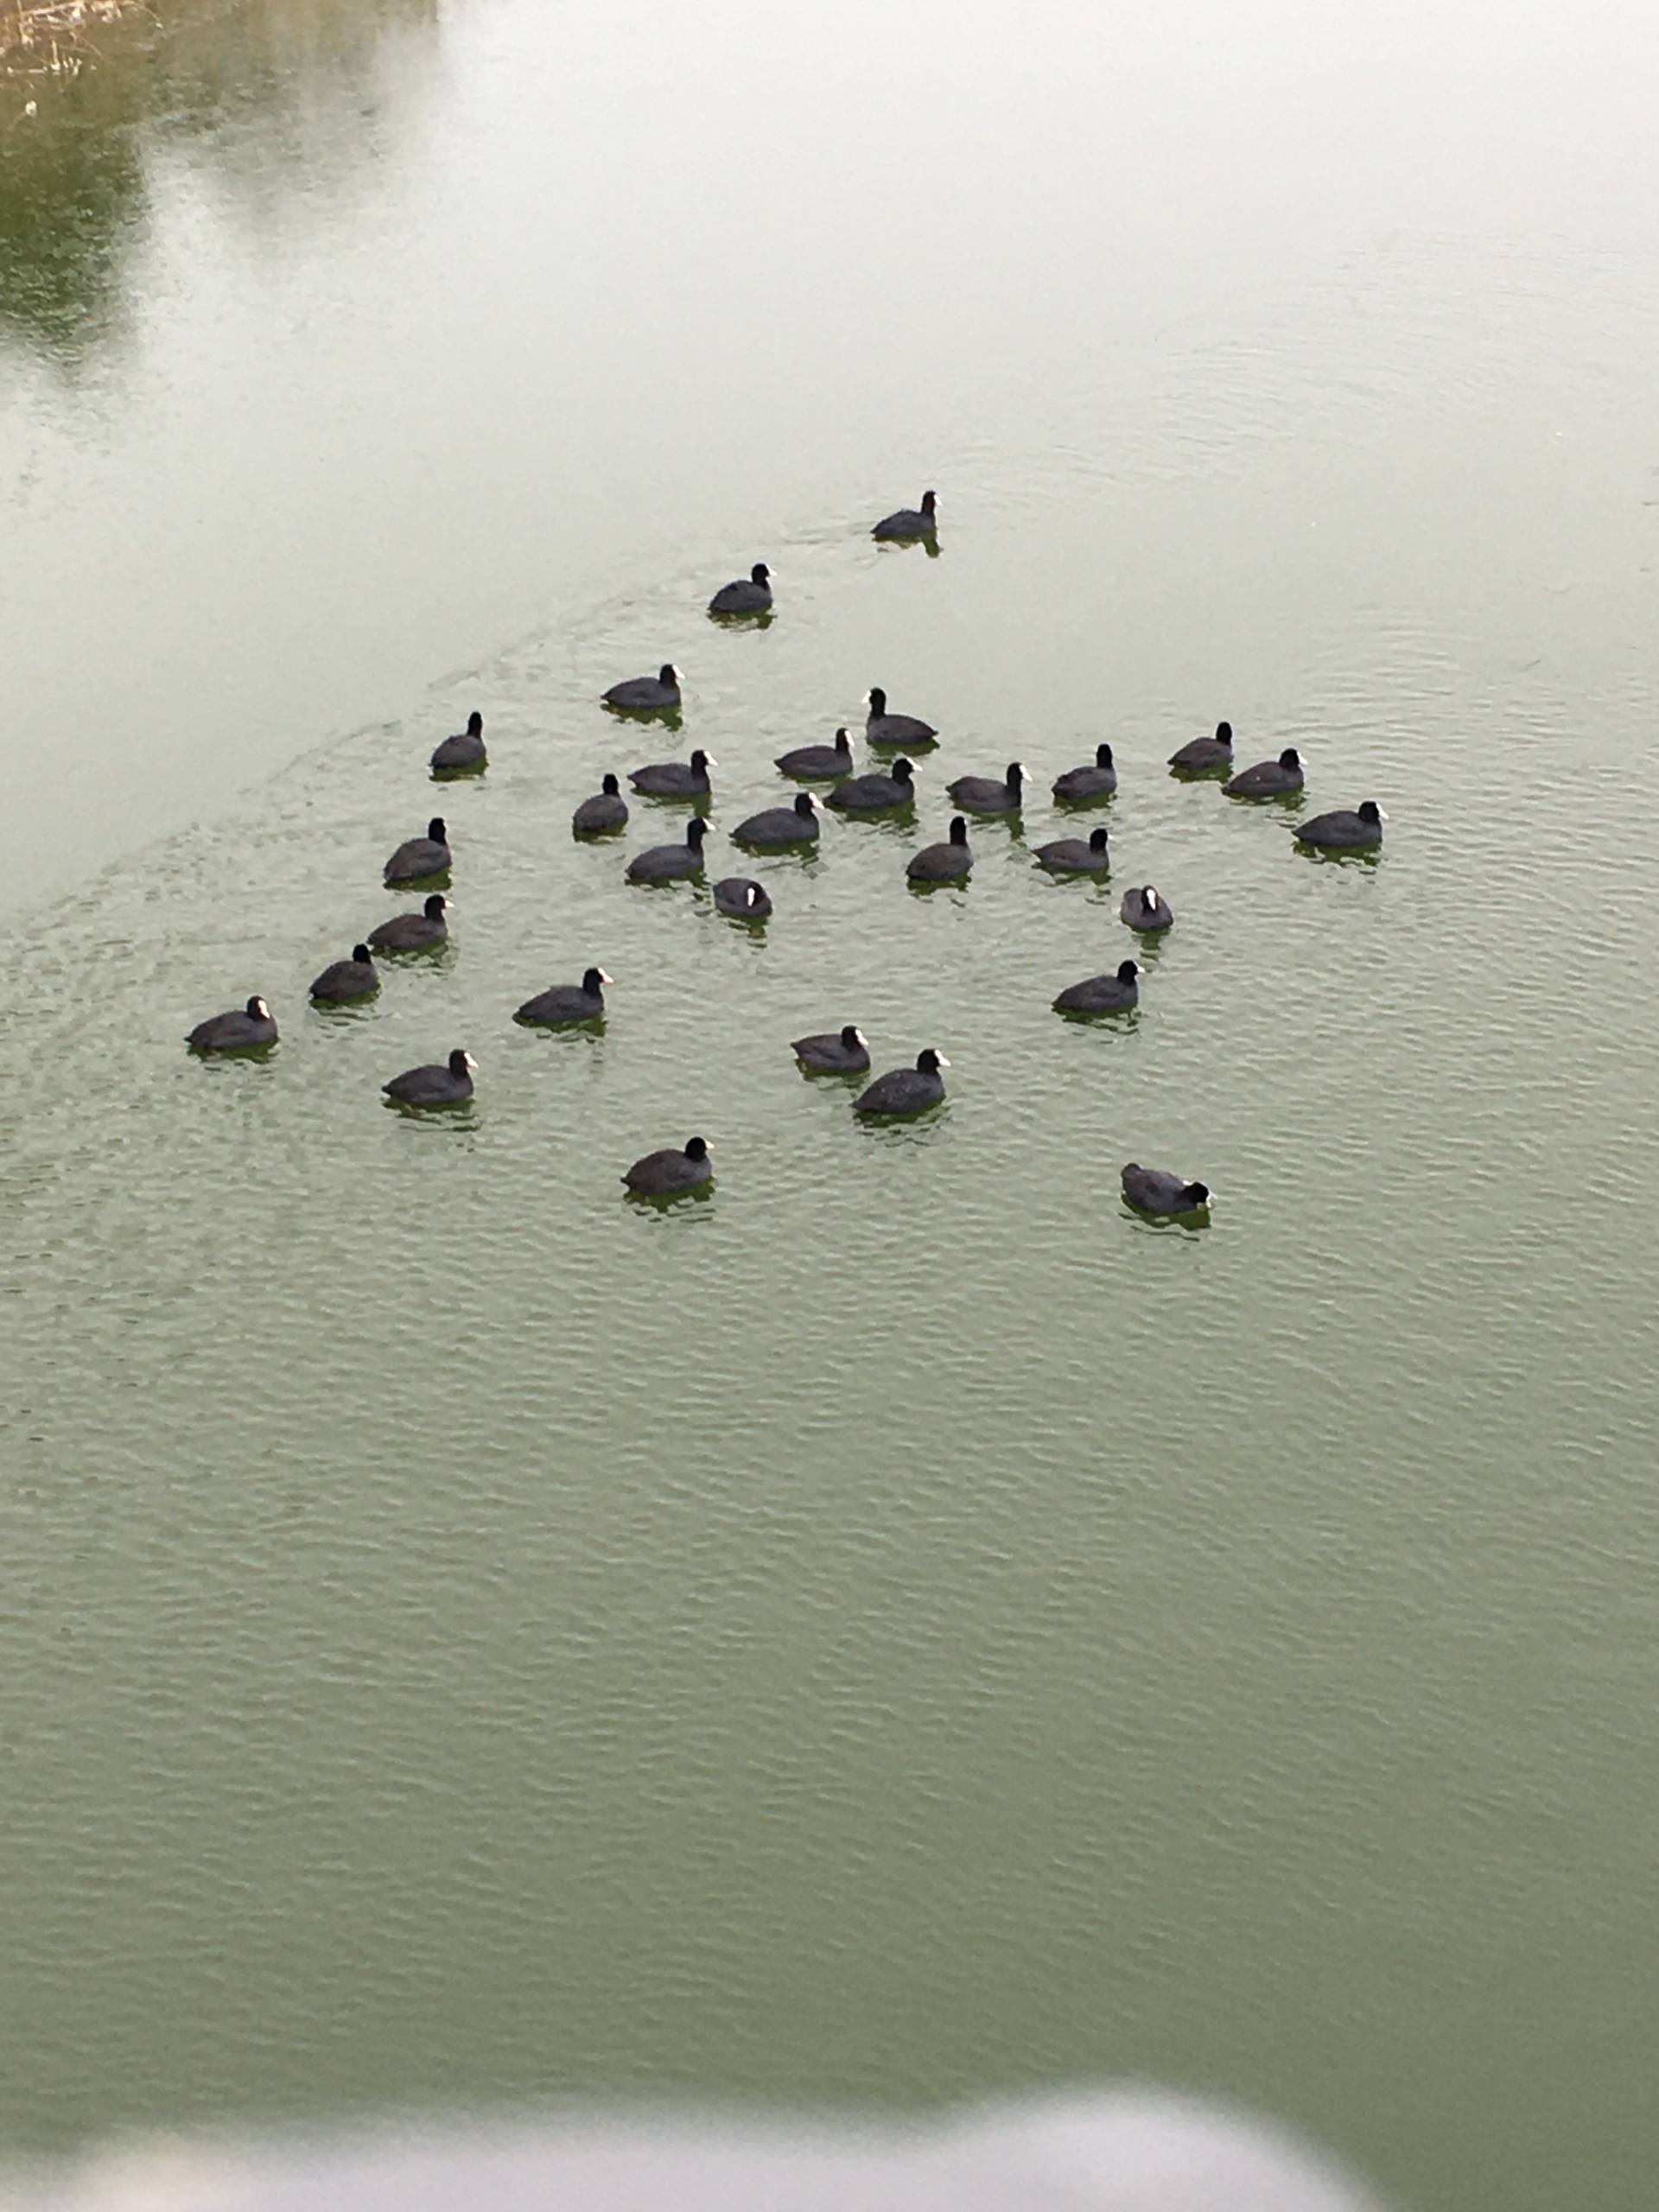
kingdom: Animalia
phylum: Chordata
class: Aves
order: Gruiformes
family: Rallidae
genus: Fulica
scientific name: Fulica atra
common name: Blishøne
